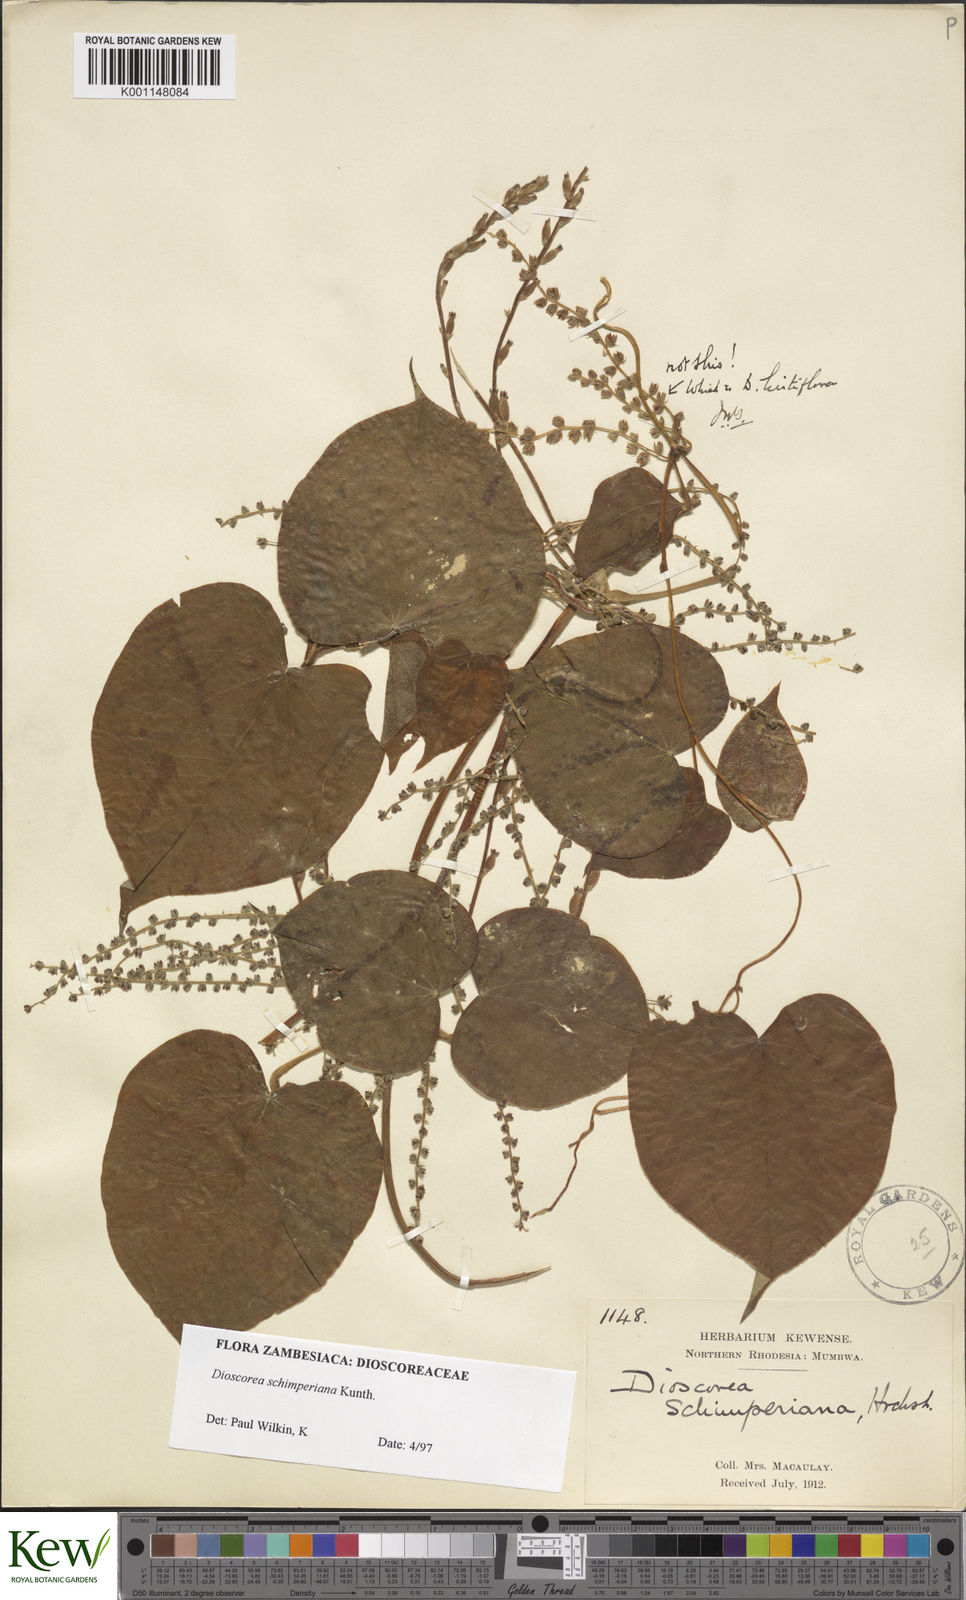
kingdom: Plantae
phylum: Tracheophyta
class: Liliopsida
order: Dioscoreales
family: Dioscoreaceae
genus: Dioscorea
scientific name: Dioscorea schimperiana
